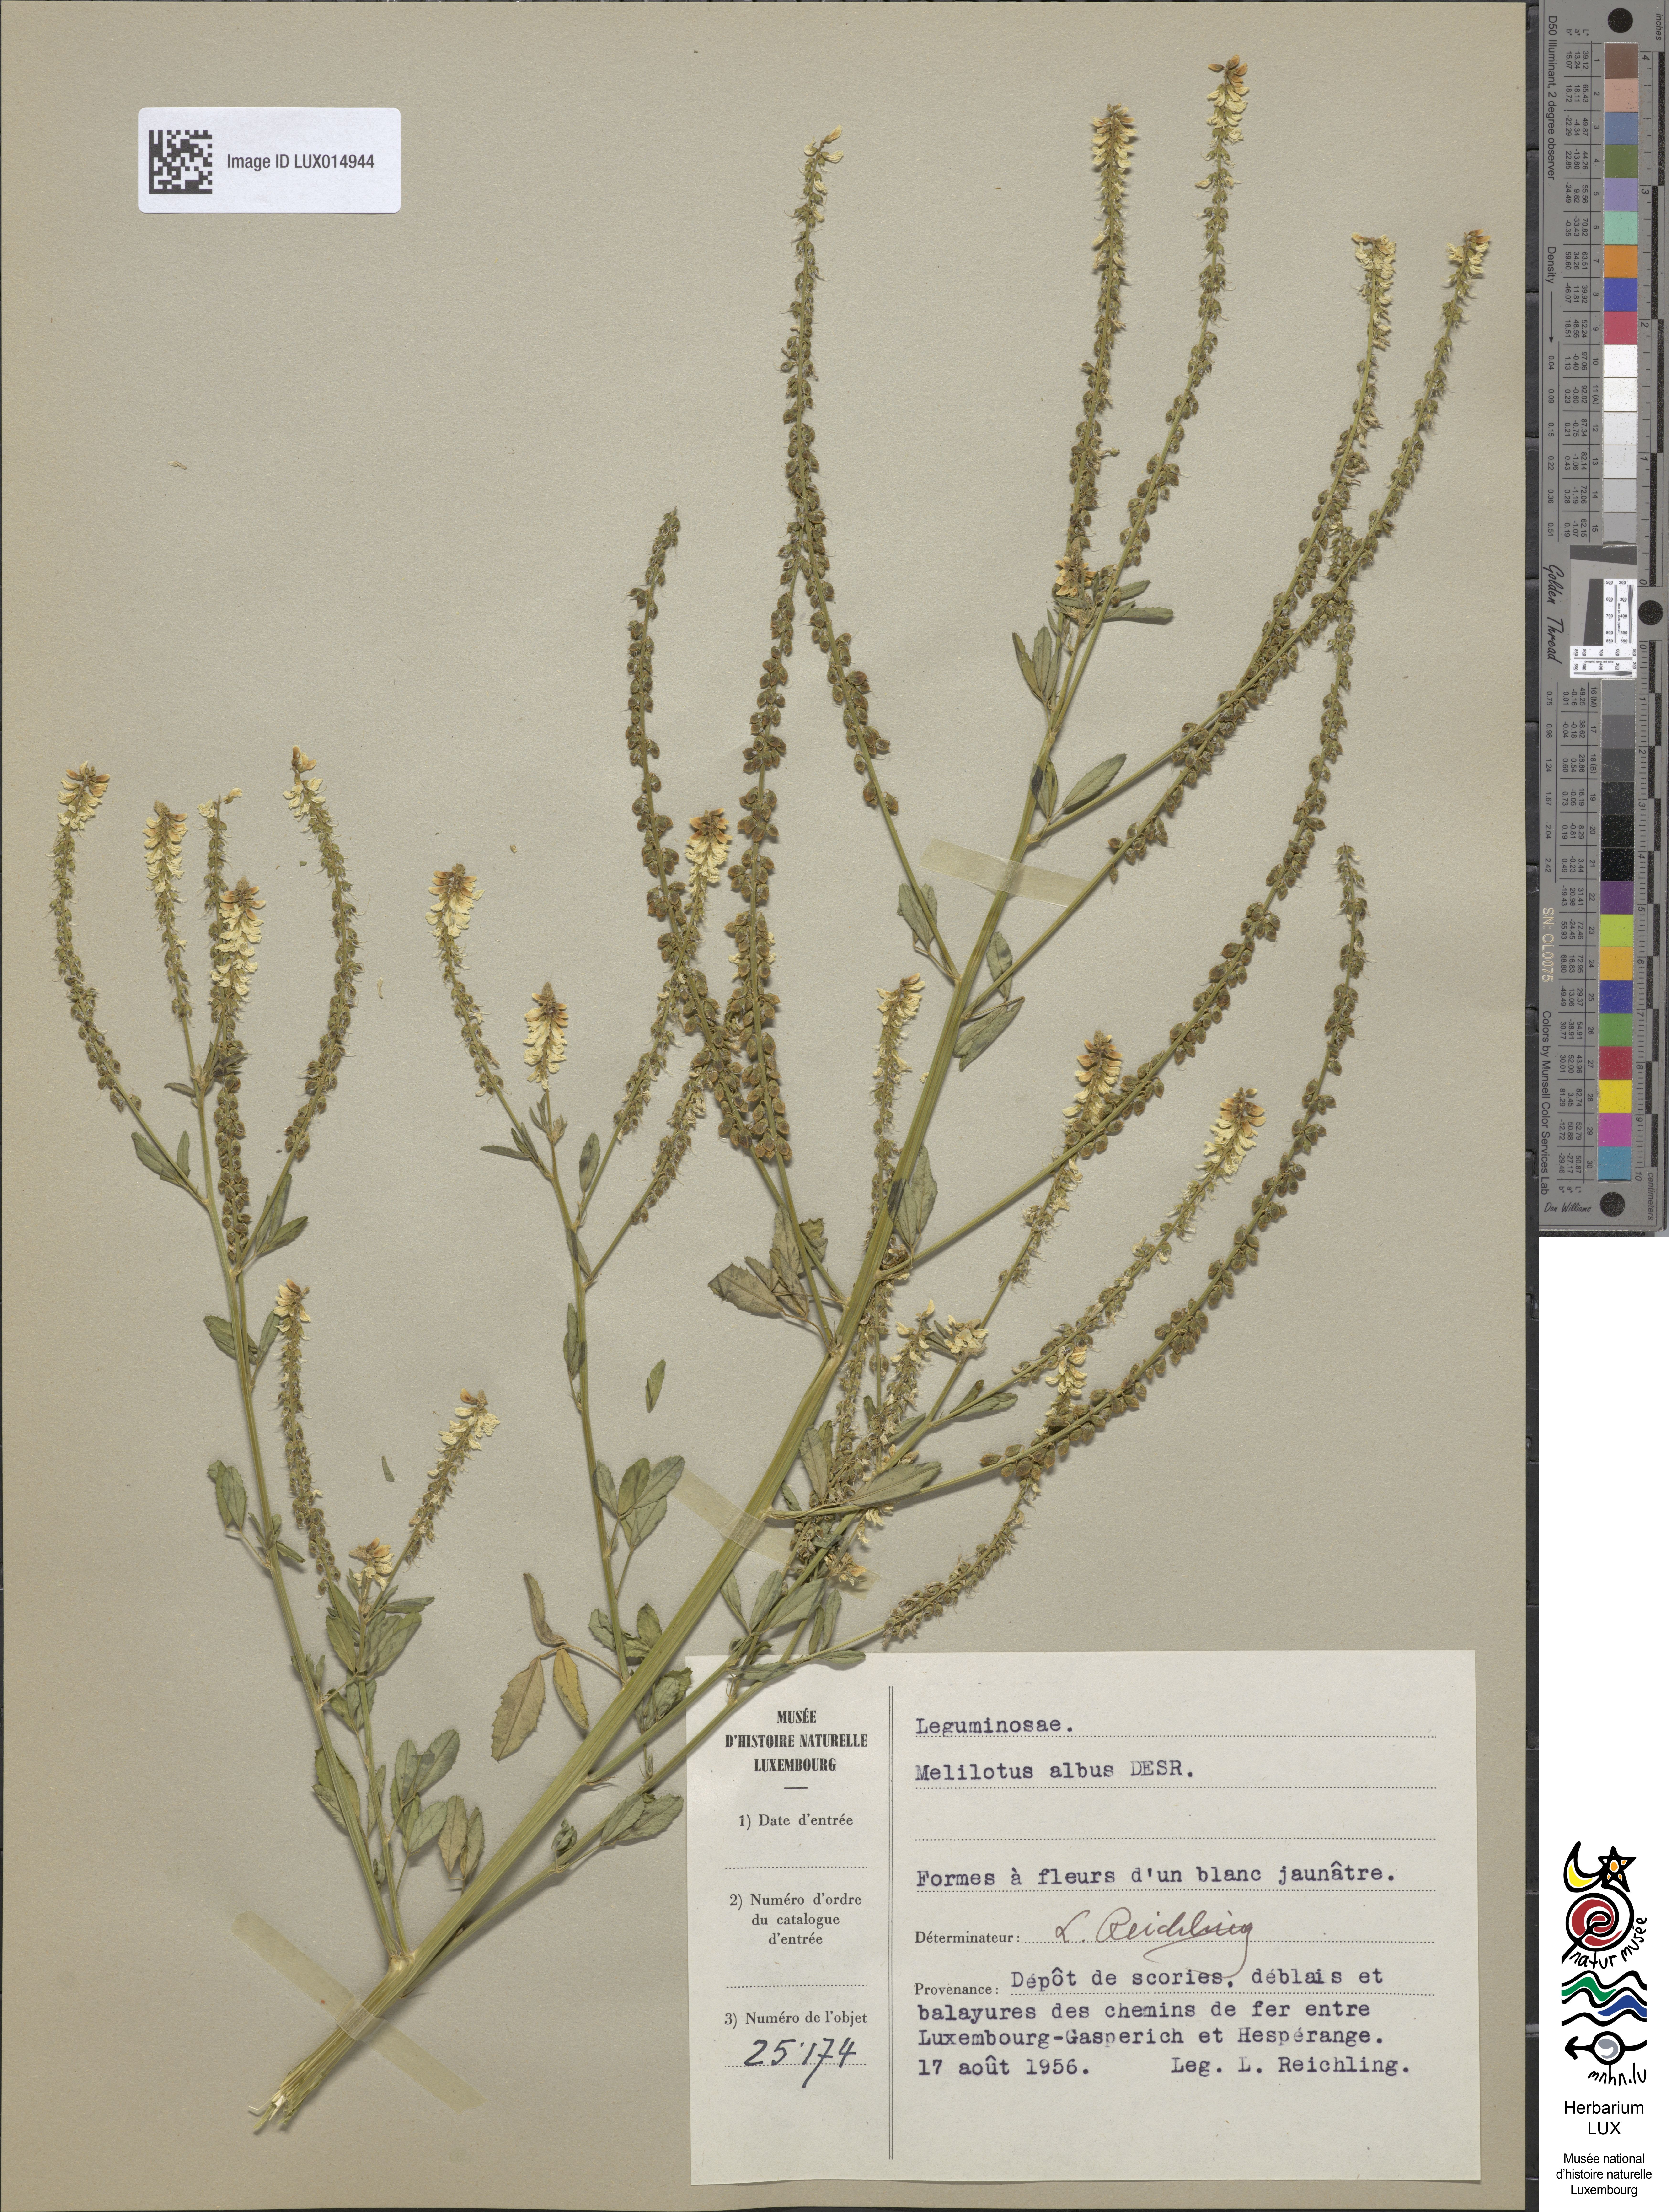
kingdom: Plantae
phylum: Tracheophyta
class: Magnoliopsida
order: Fabales
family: Fabaceae
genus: Melilotus
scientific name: Melilotus albus
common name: White melilot
